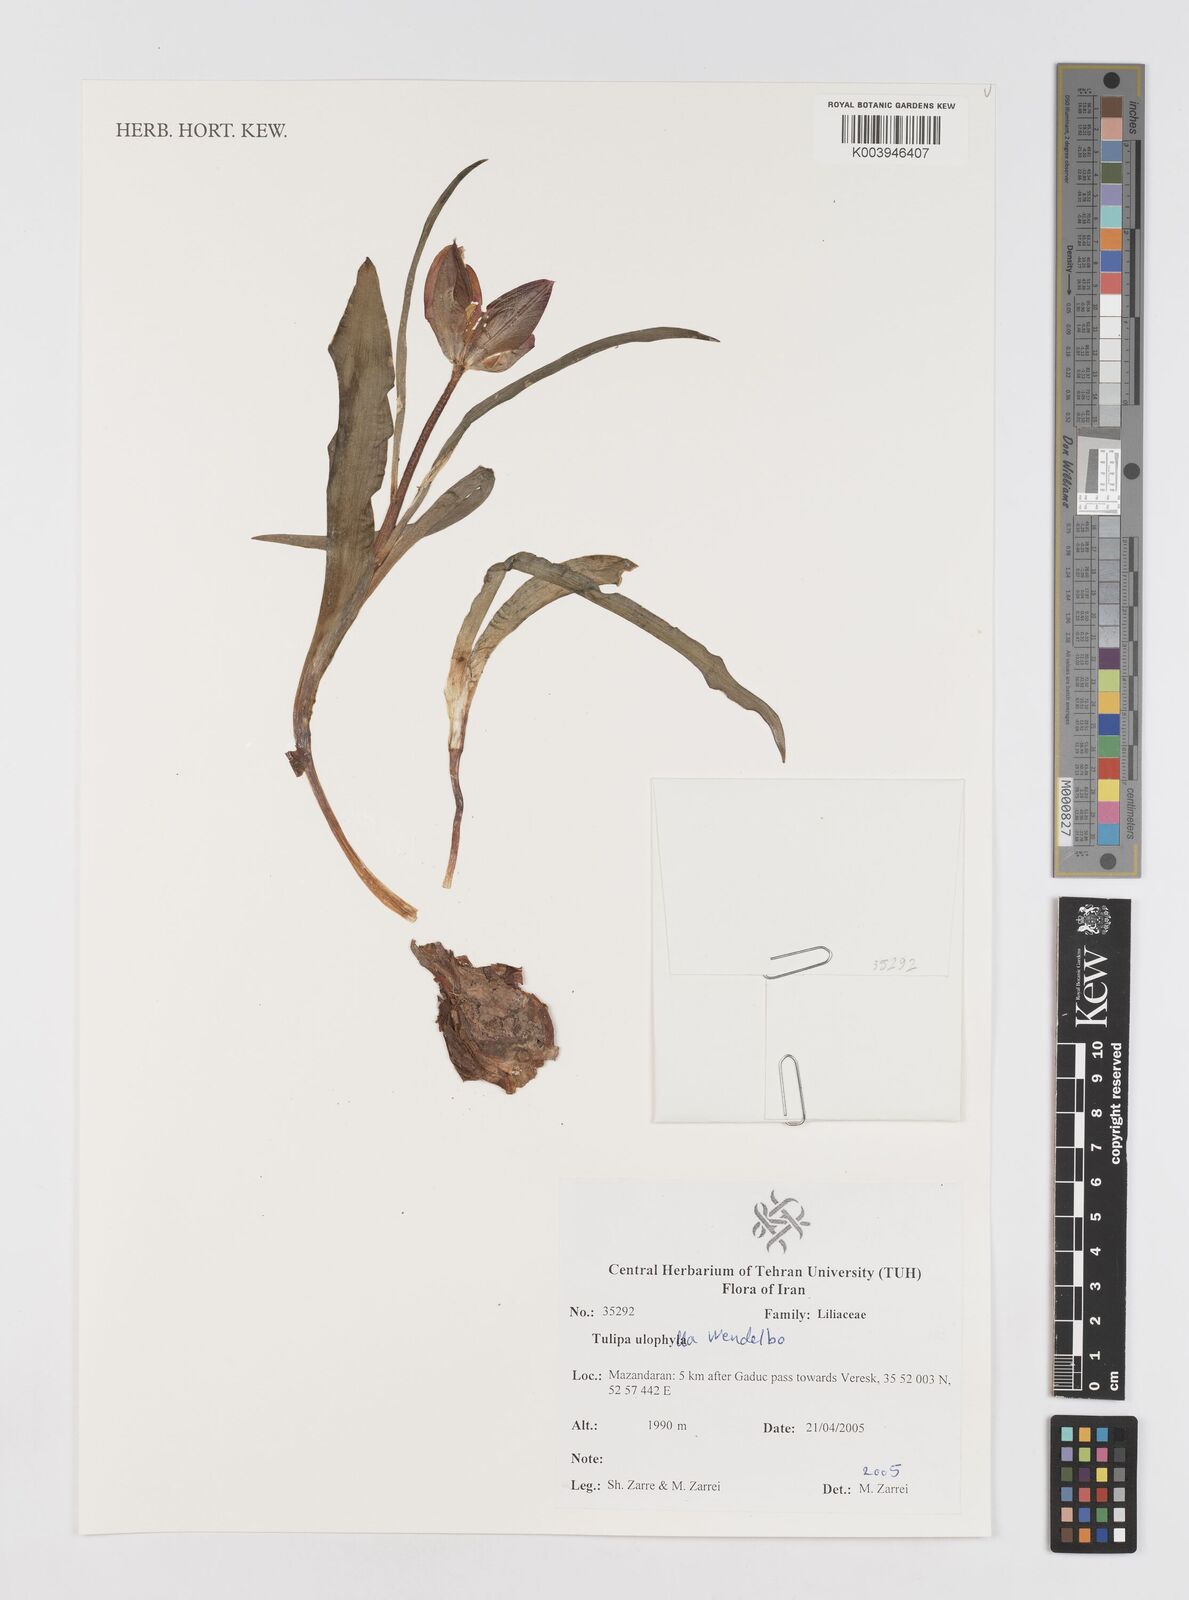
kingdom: Plantae
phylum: Tracheophyta
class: Liliopsida
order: Liliales
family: Liliaceae
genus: Tulipa
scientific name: Tulipa
